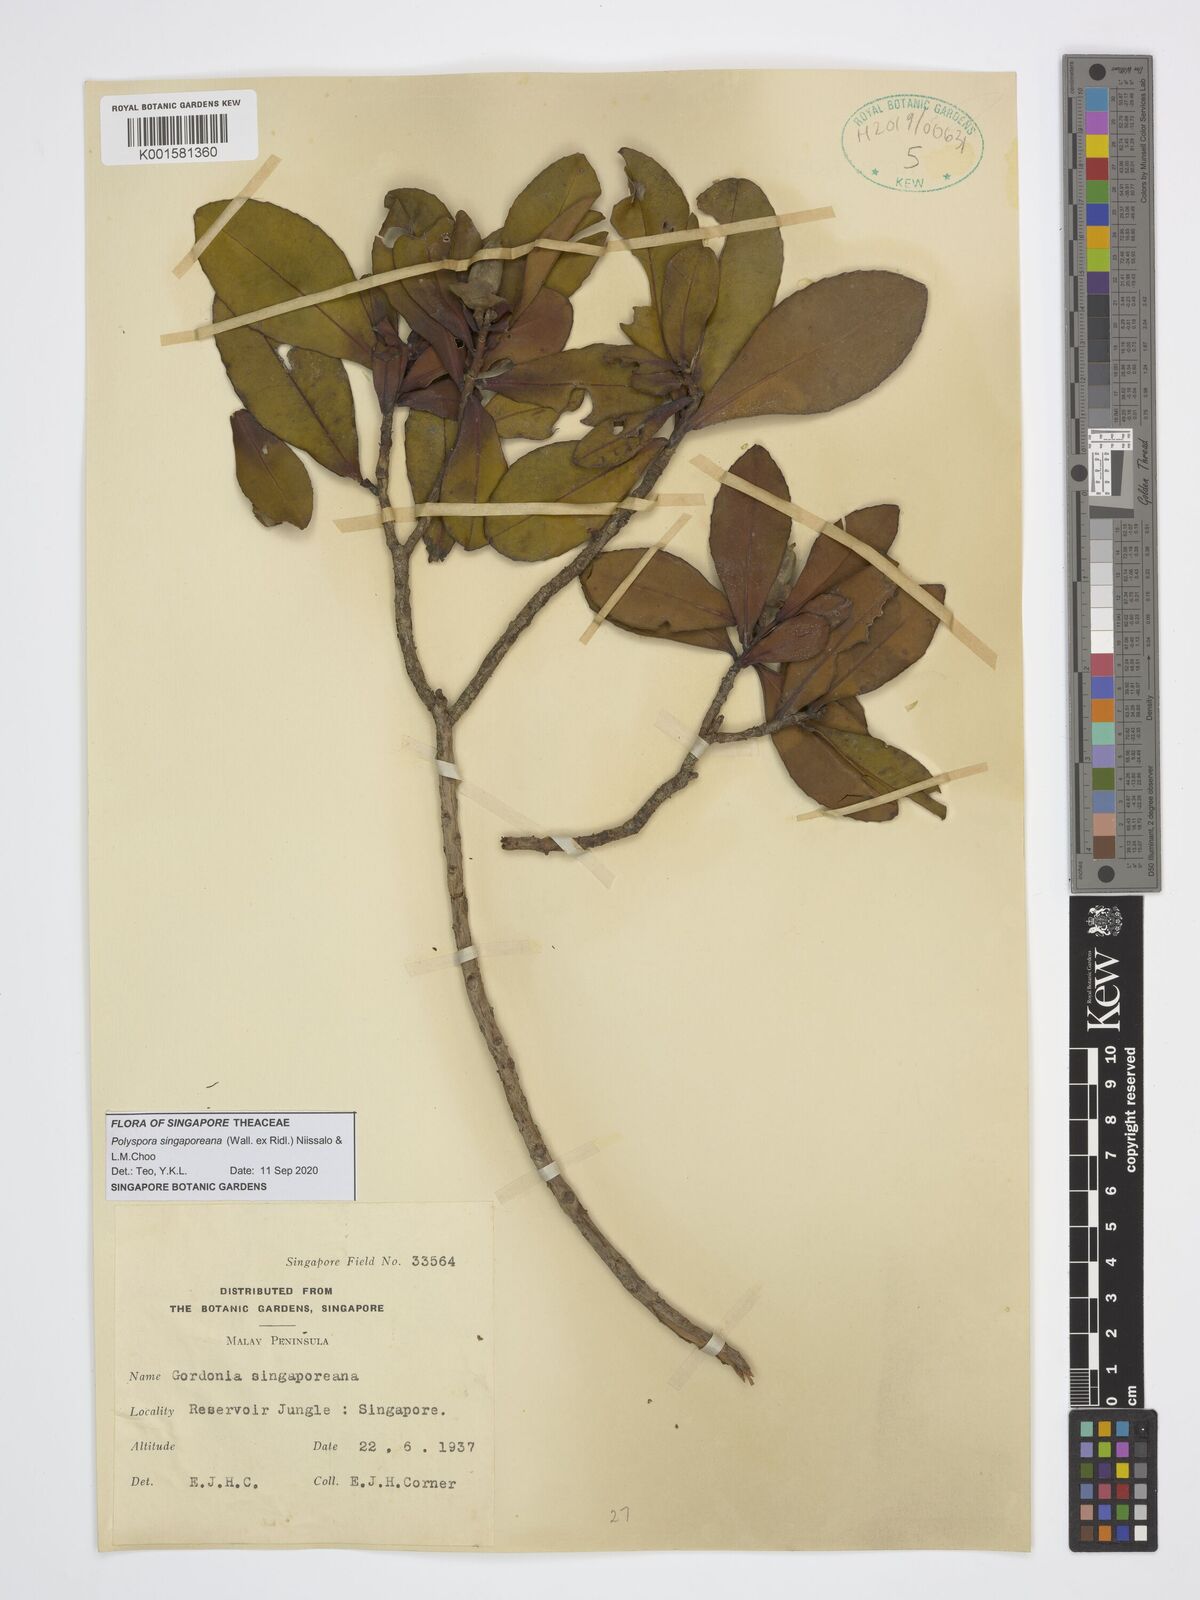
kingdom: Plantae
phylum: Tracheophyta
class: Magnoliopsida
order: Ericales
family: Theaceae
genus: Polyspora
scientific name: Polyspora
